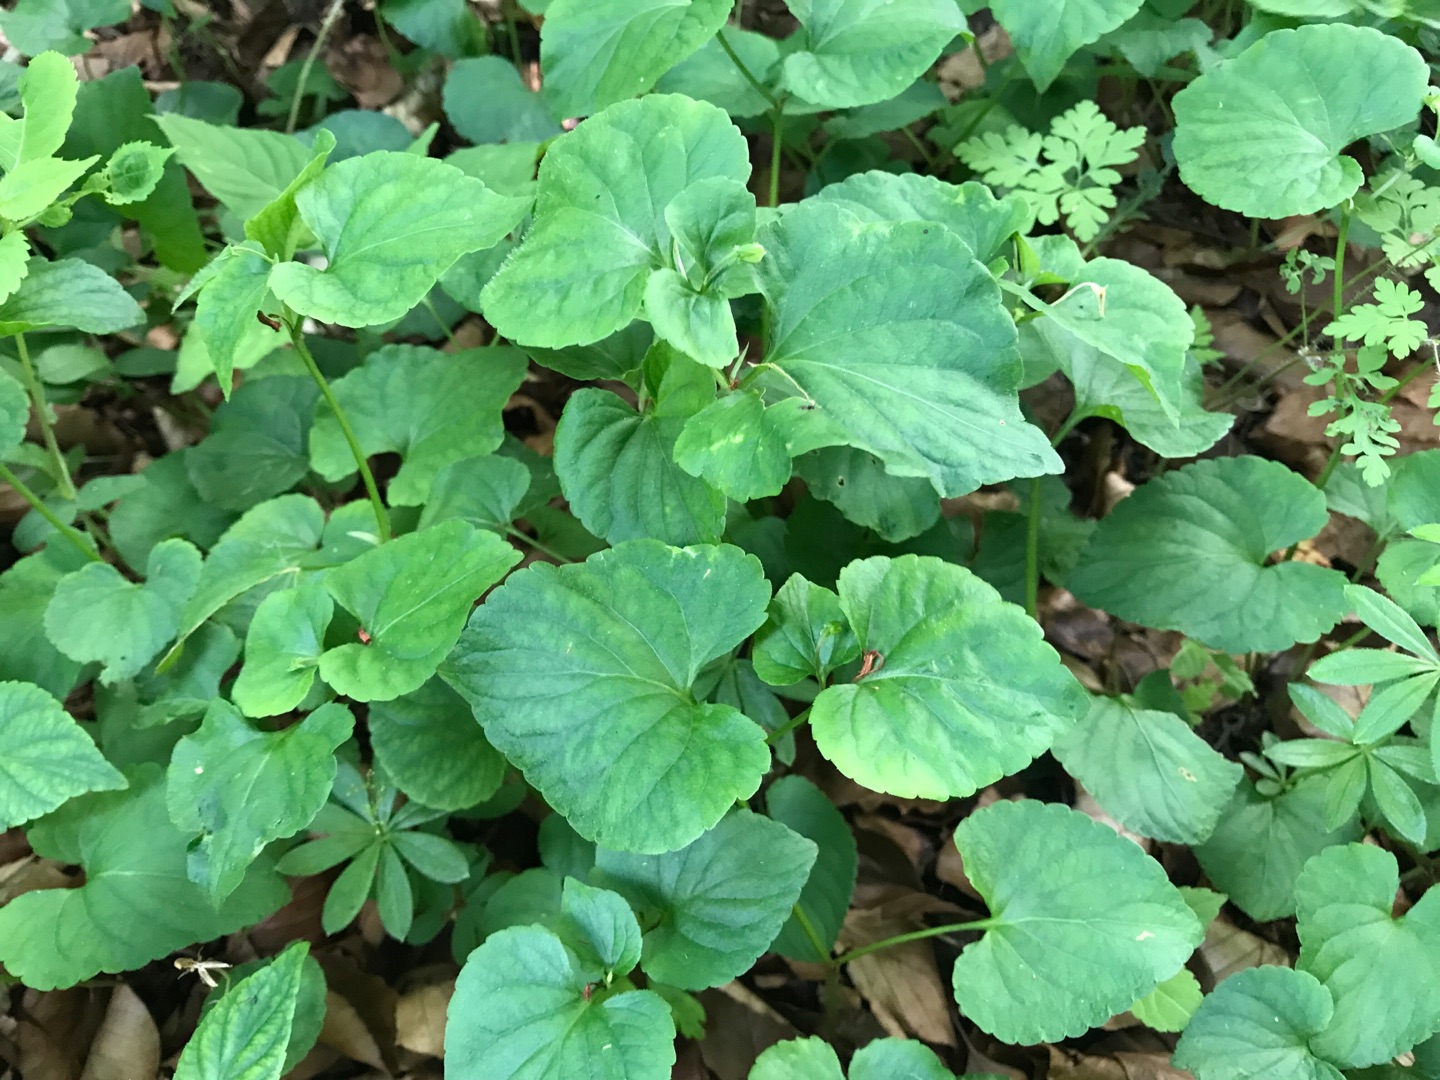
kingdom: Plantae
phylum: Tracheophyta
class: Magnoliopsida
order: Malpighiales
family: Violaceae
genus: Viola
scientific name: Viola mirabilis
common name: Forskelligblomstret viol
